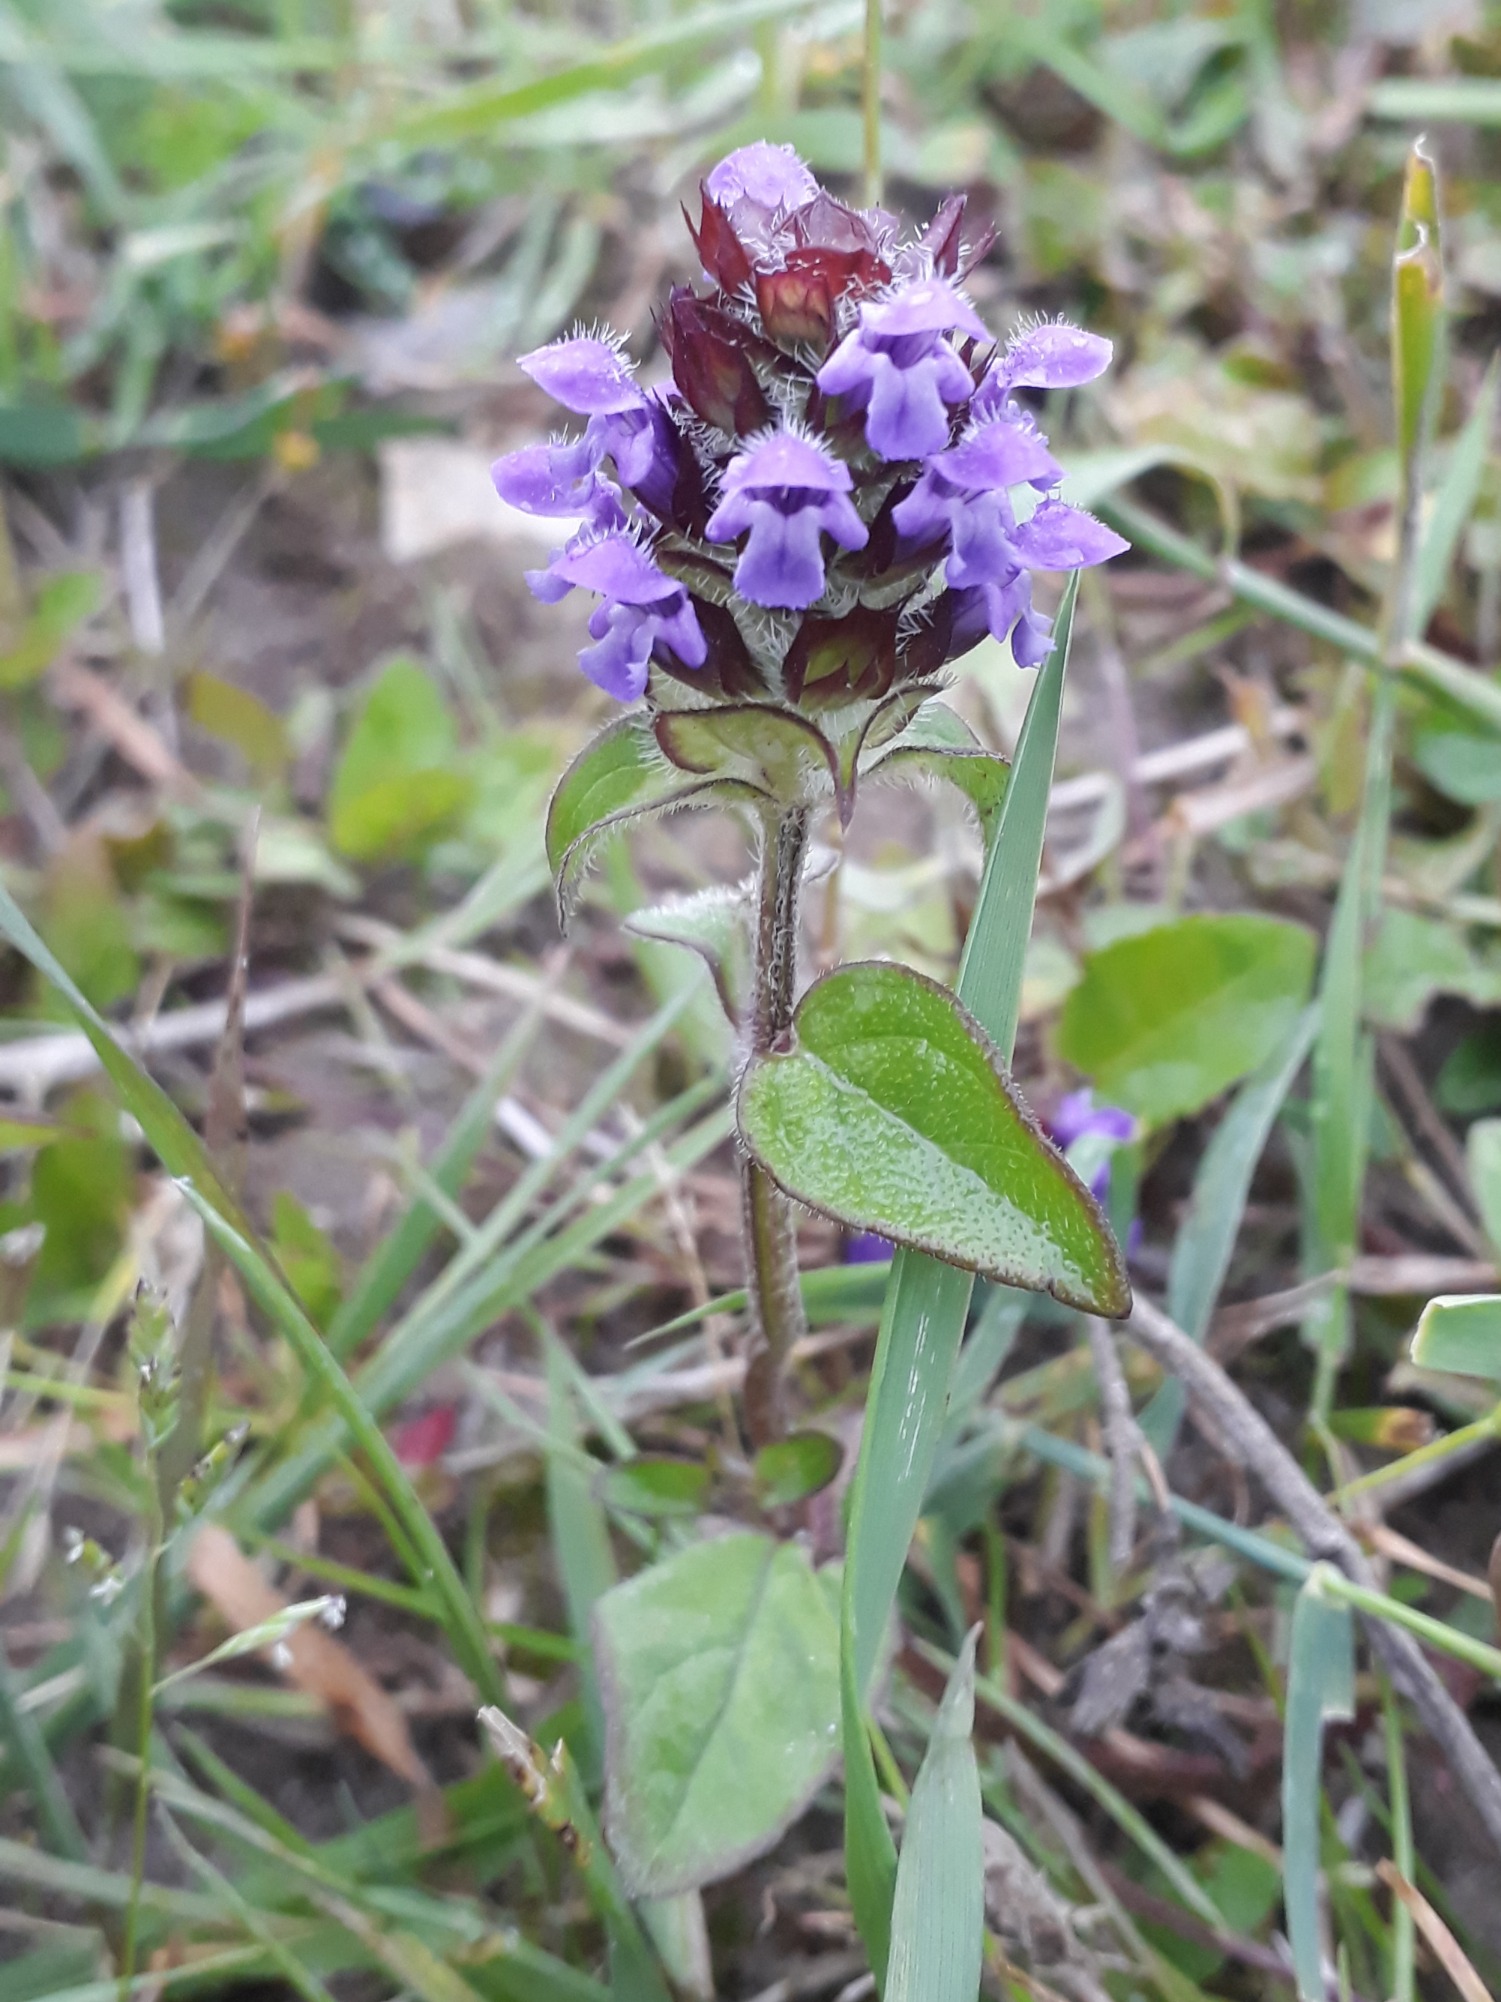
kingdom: Plantae
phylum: Tracheophyta
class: Magnoliopsida
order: Lamiales
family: Lamiaceae
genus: Prunella
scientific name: Prunella vulgaris
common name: Almindelig brunelle
